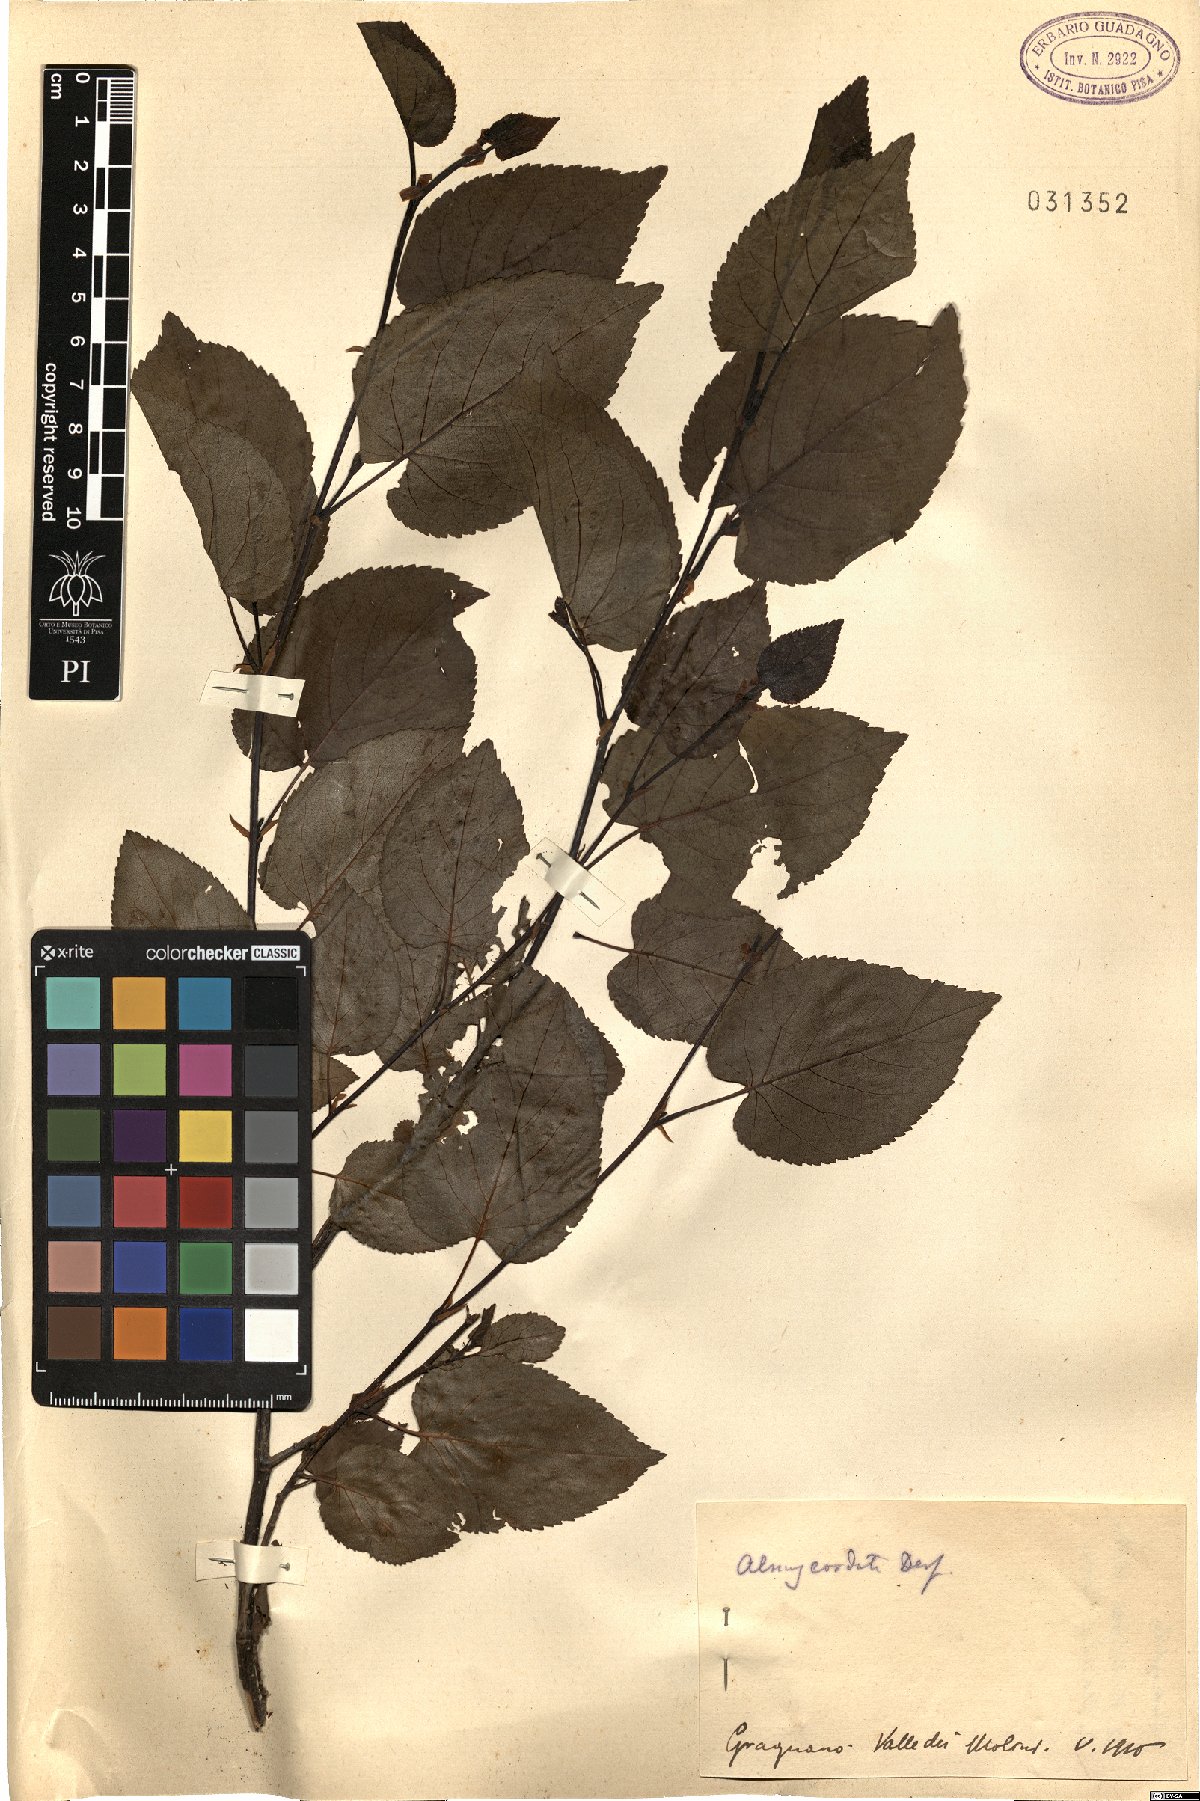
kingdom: Plantae
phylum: Tracheophyta
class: Magnoliopsida
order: Fagales
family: Betulaceae
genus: Alnus
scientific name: Alnus cordata
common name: Italian alder
